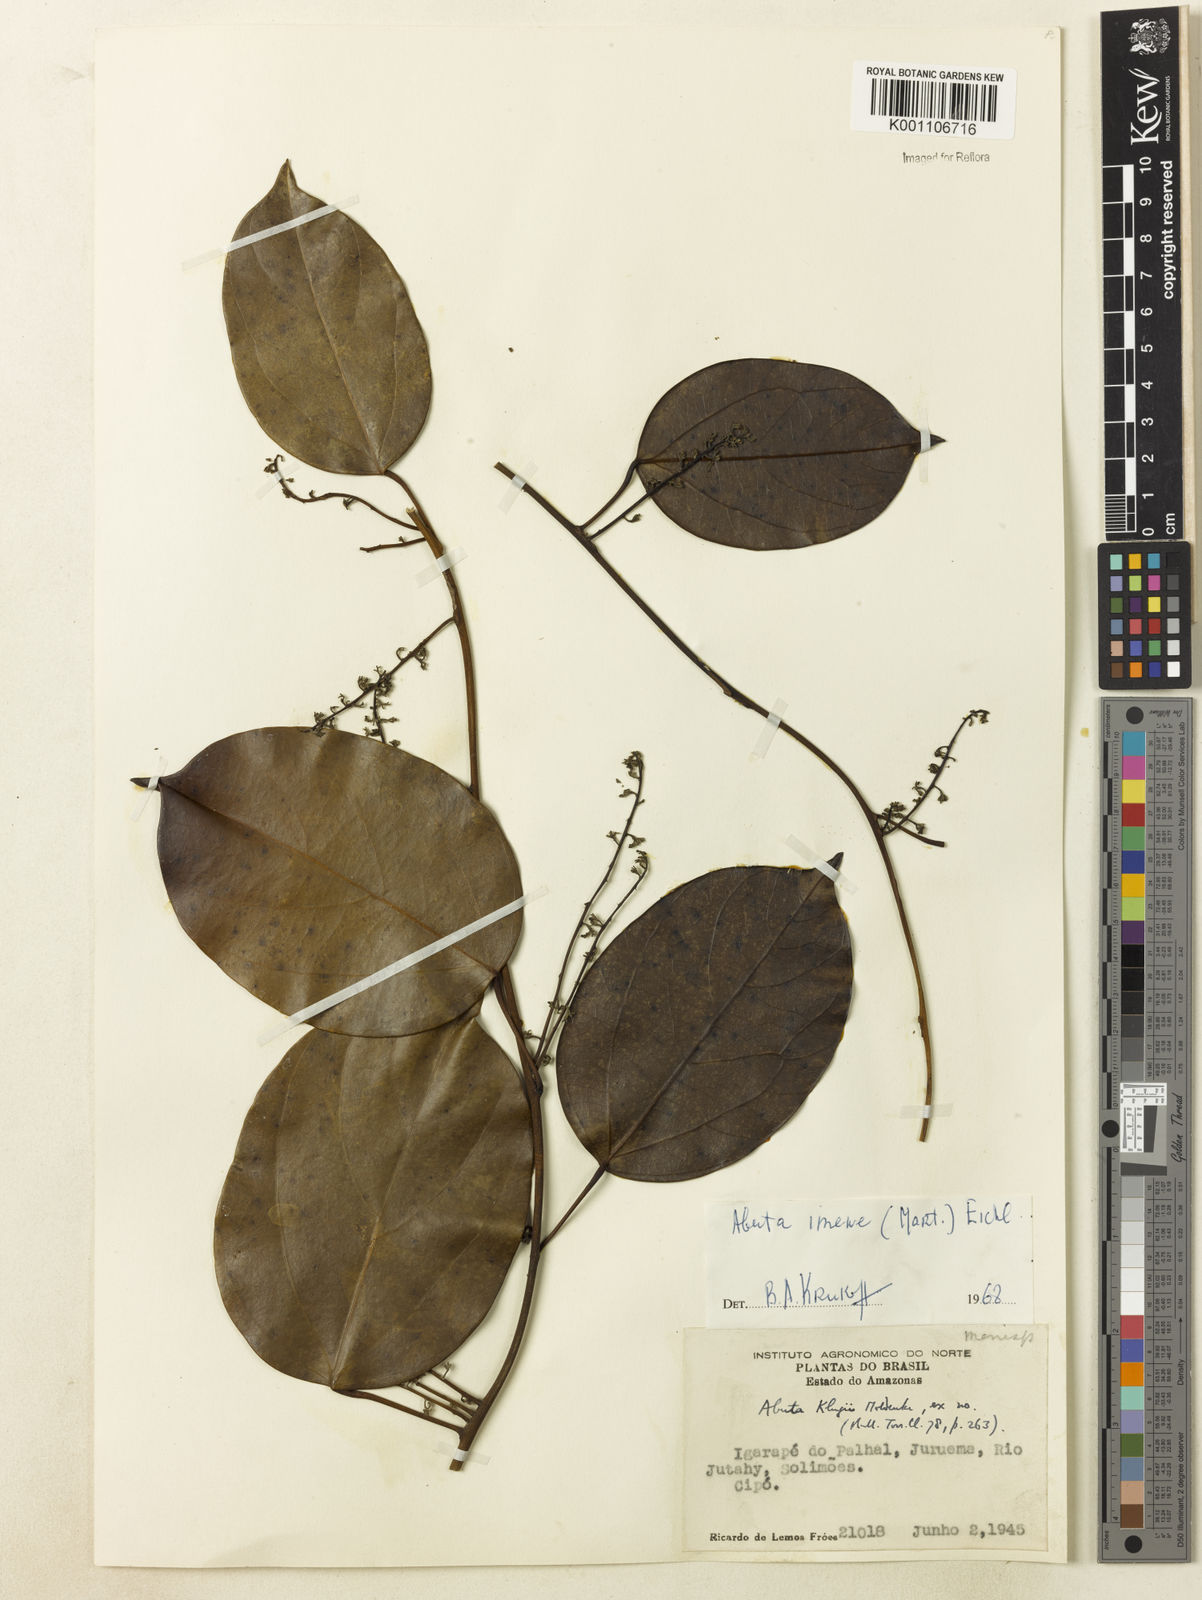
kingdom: Plantae
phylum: Tracheophyta
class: Magnoliopsida
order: Ranunculales
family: Menispermaceae
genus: Abuta
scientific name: Abuta imene
